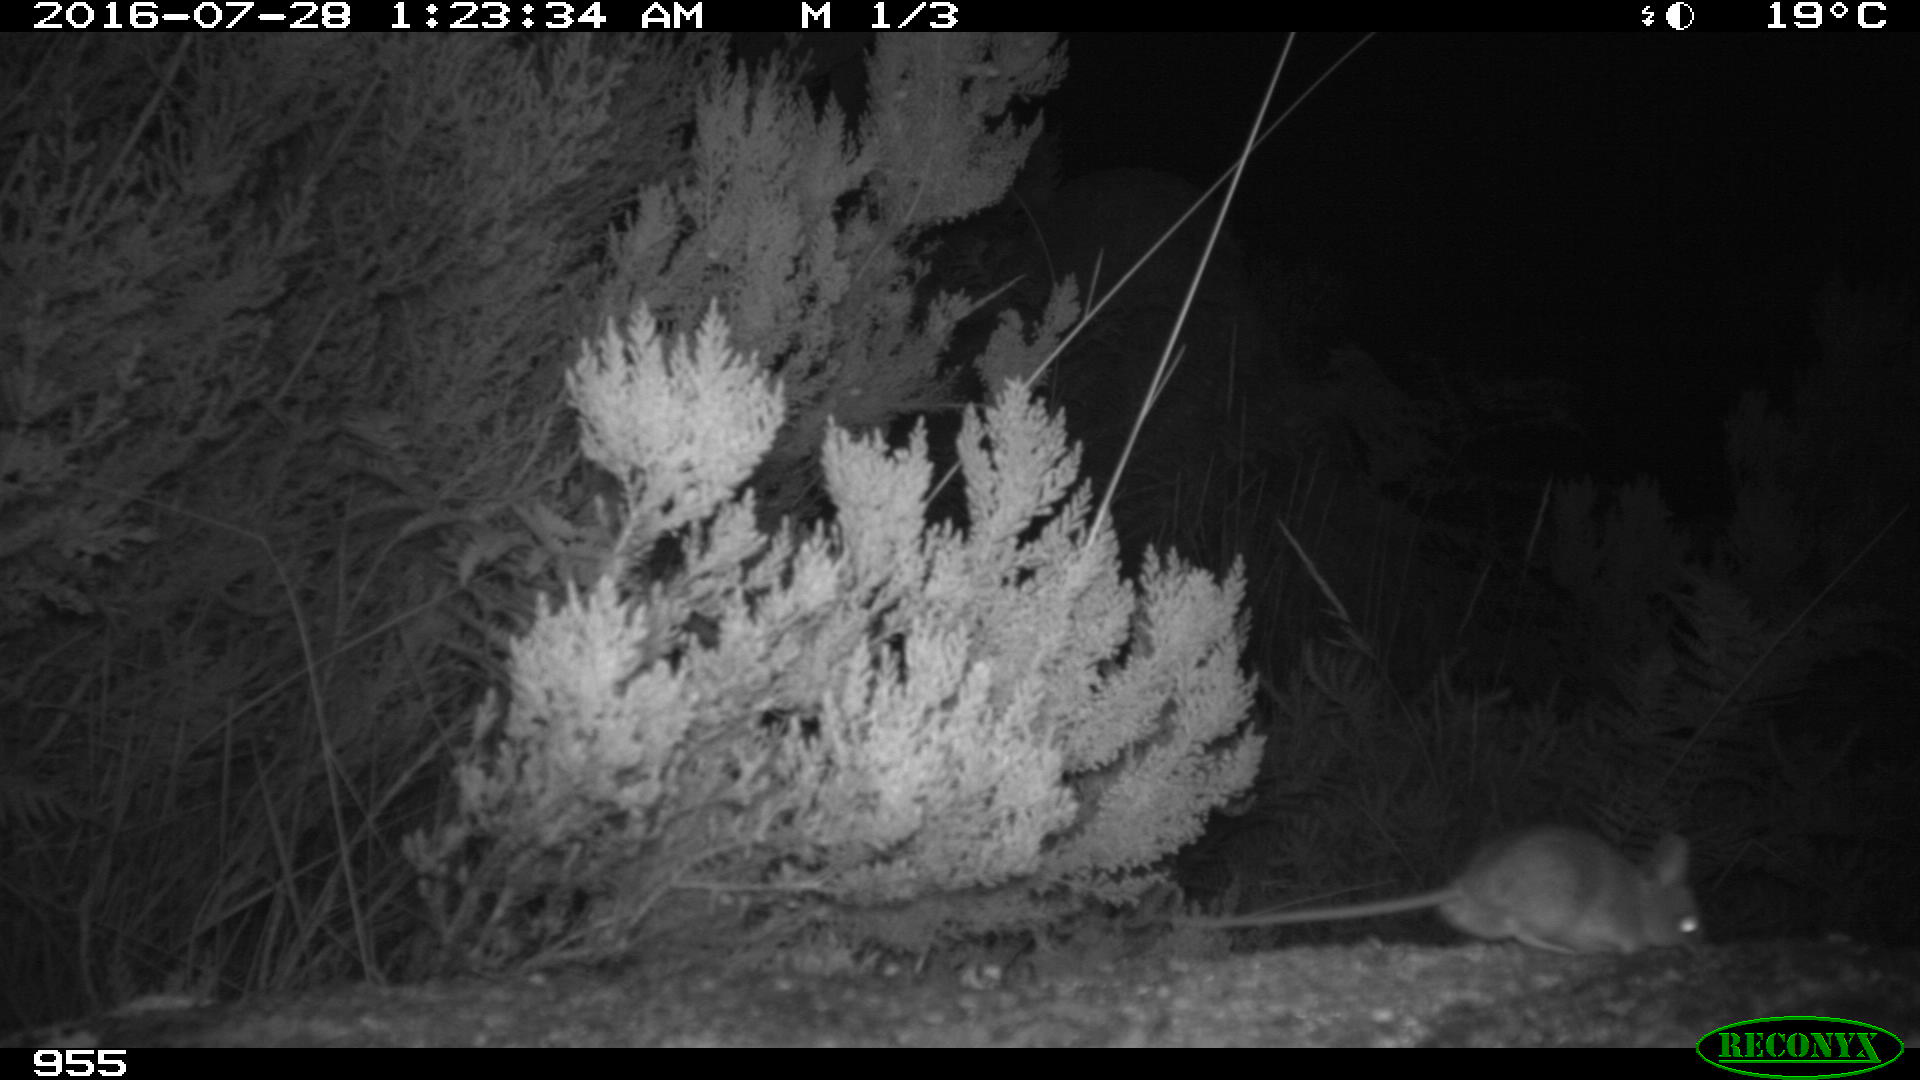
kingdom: Animalia
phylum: Chordata
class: Mammalia
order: Rodentia
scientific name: Rodentia
